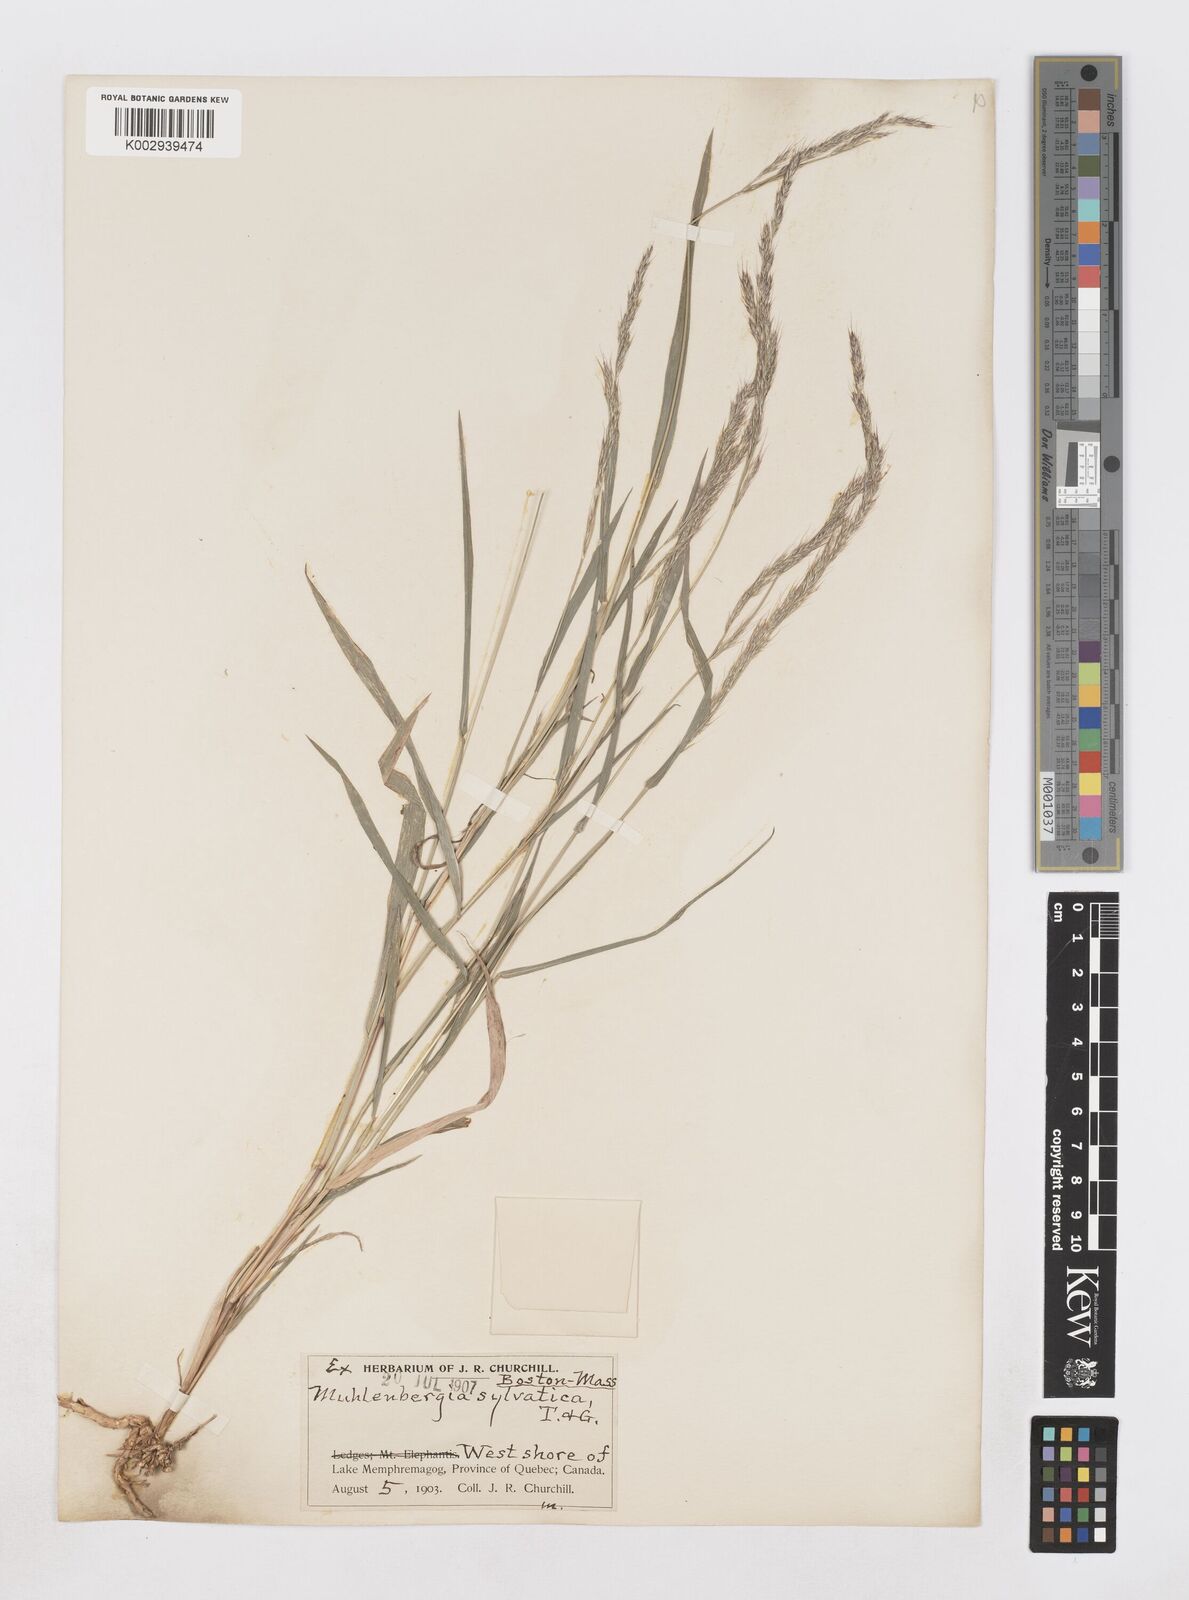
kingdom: Plantae
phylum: Tracheophyta
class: Liliopsida
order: Poales
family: Poaceae
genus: Muhlenbergia
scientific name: Muhlenbergia sylvatica
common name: Woodland muhly
